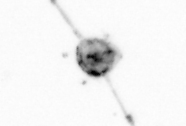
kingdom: Animalia
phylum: Arthropoda
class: Copepoda
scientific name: Copepoda
